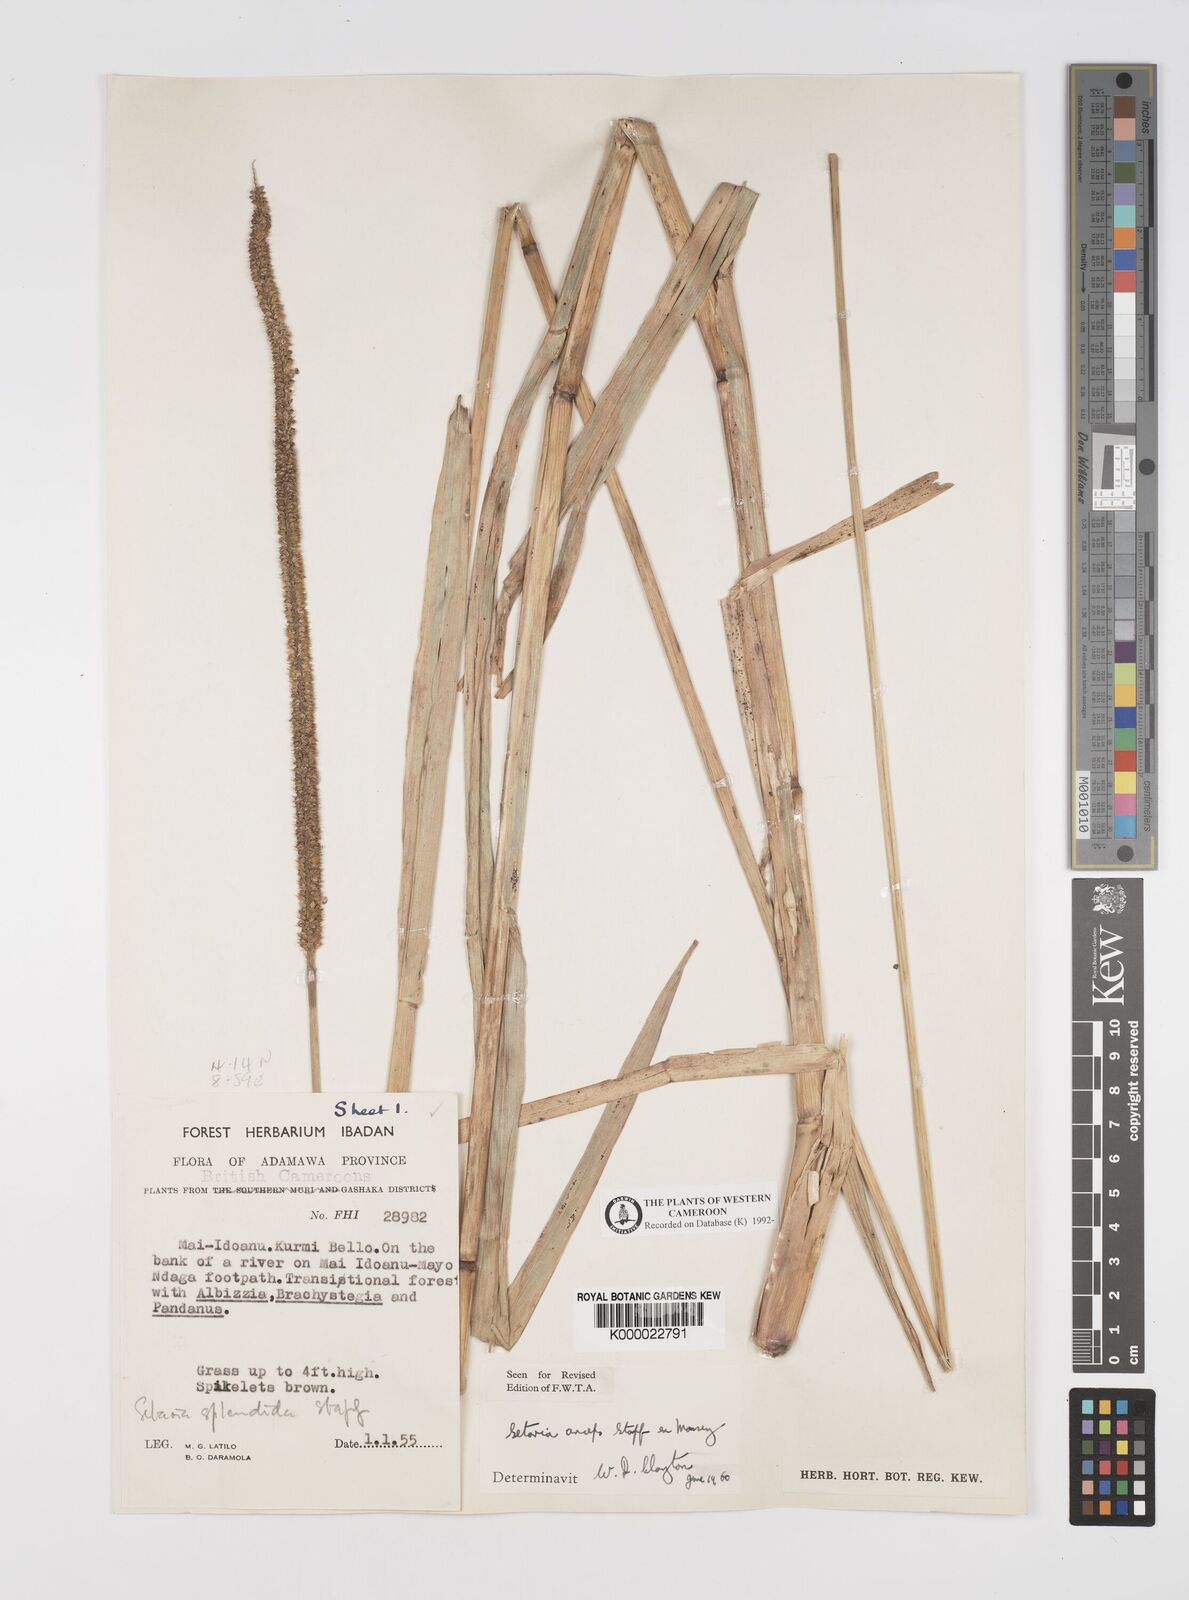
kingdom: Plantae
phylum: Tracheophyta
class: Liliopsida
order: Poales
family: Poaceae
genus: Setaria
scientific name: Setaria sphacelata
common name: African bristlegrass
